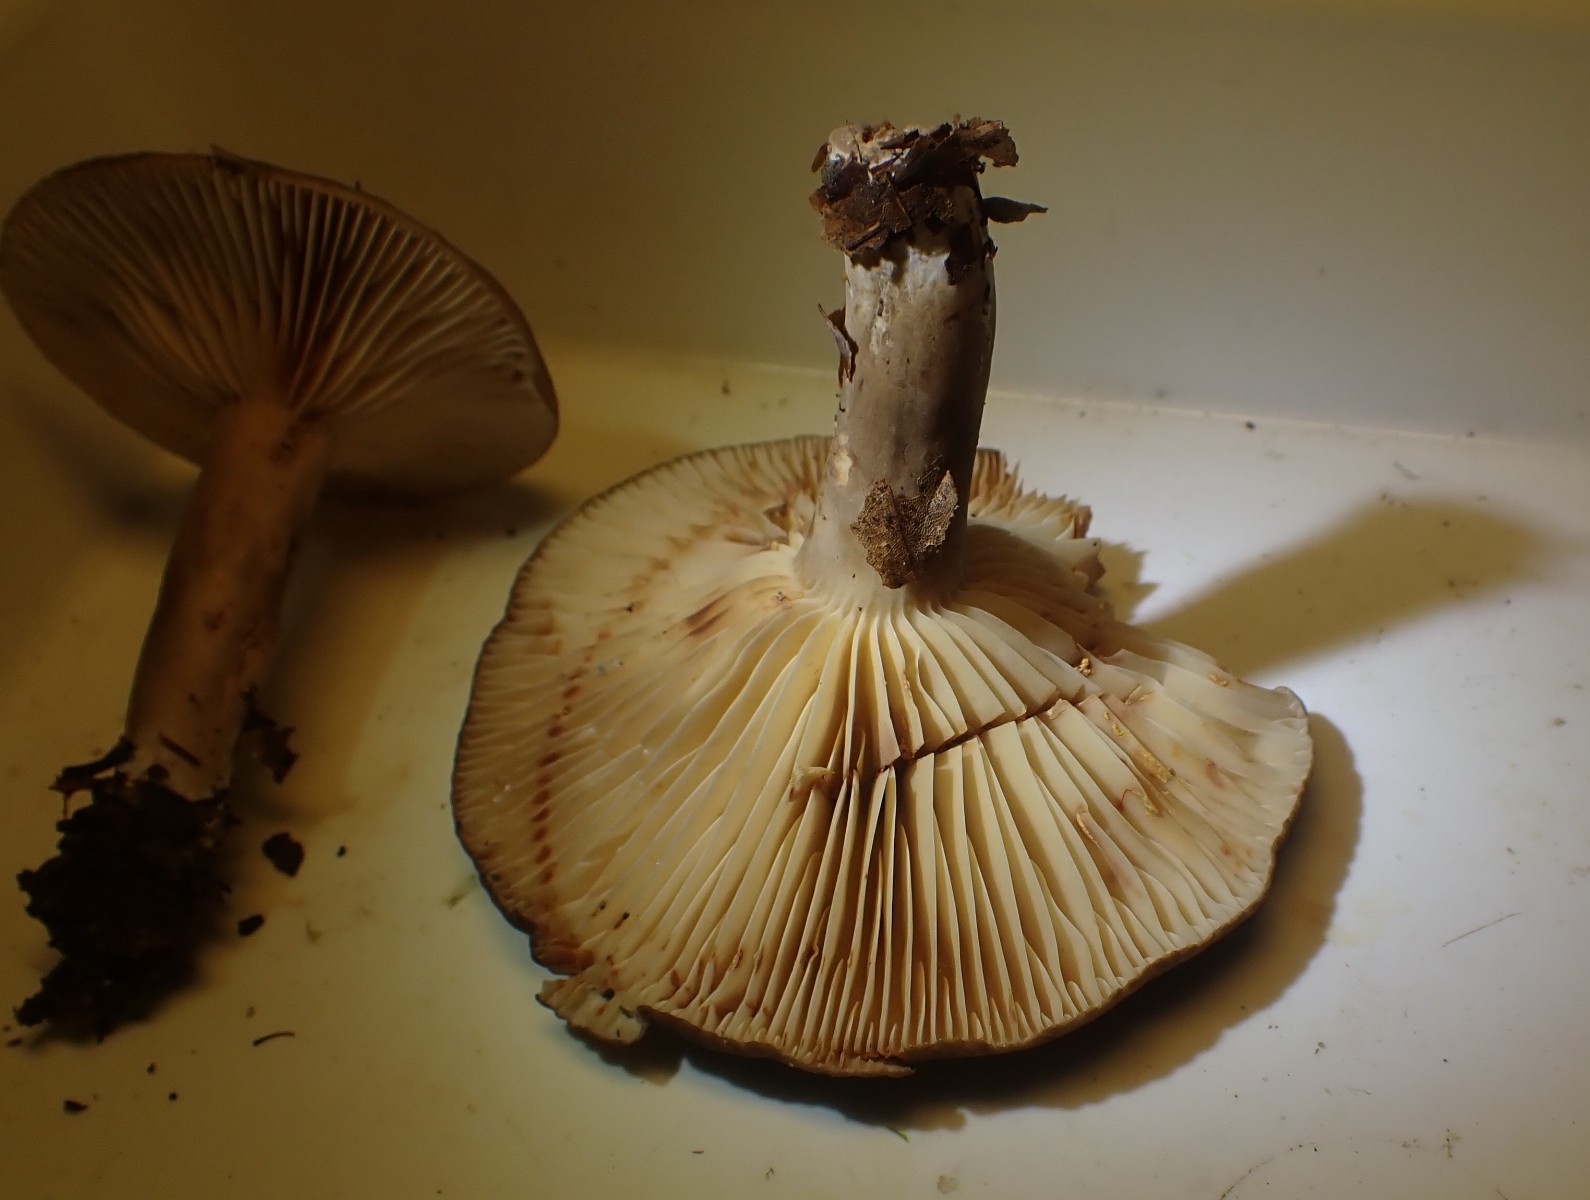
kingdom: Fungi
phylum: Basidiomycota
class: Agaricomycetes
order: Russulales
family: Russulaceae
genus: Lactarius
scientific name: Lactarius romagnesii
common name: fjernbladet mælkehat
